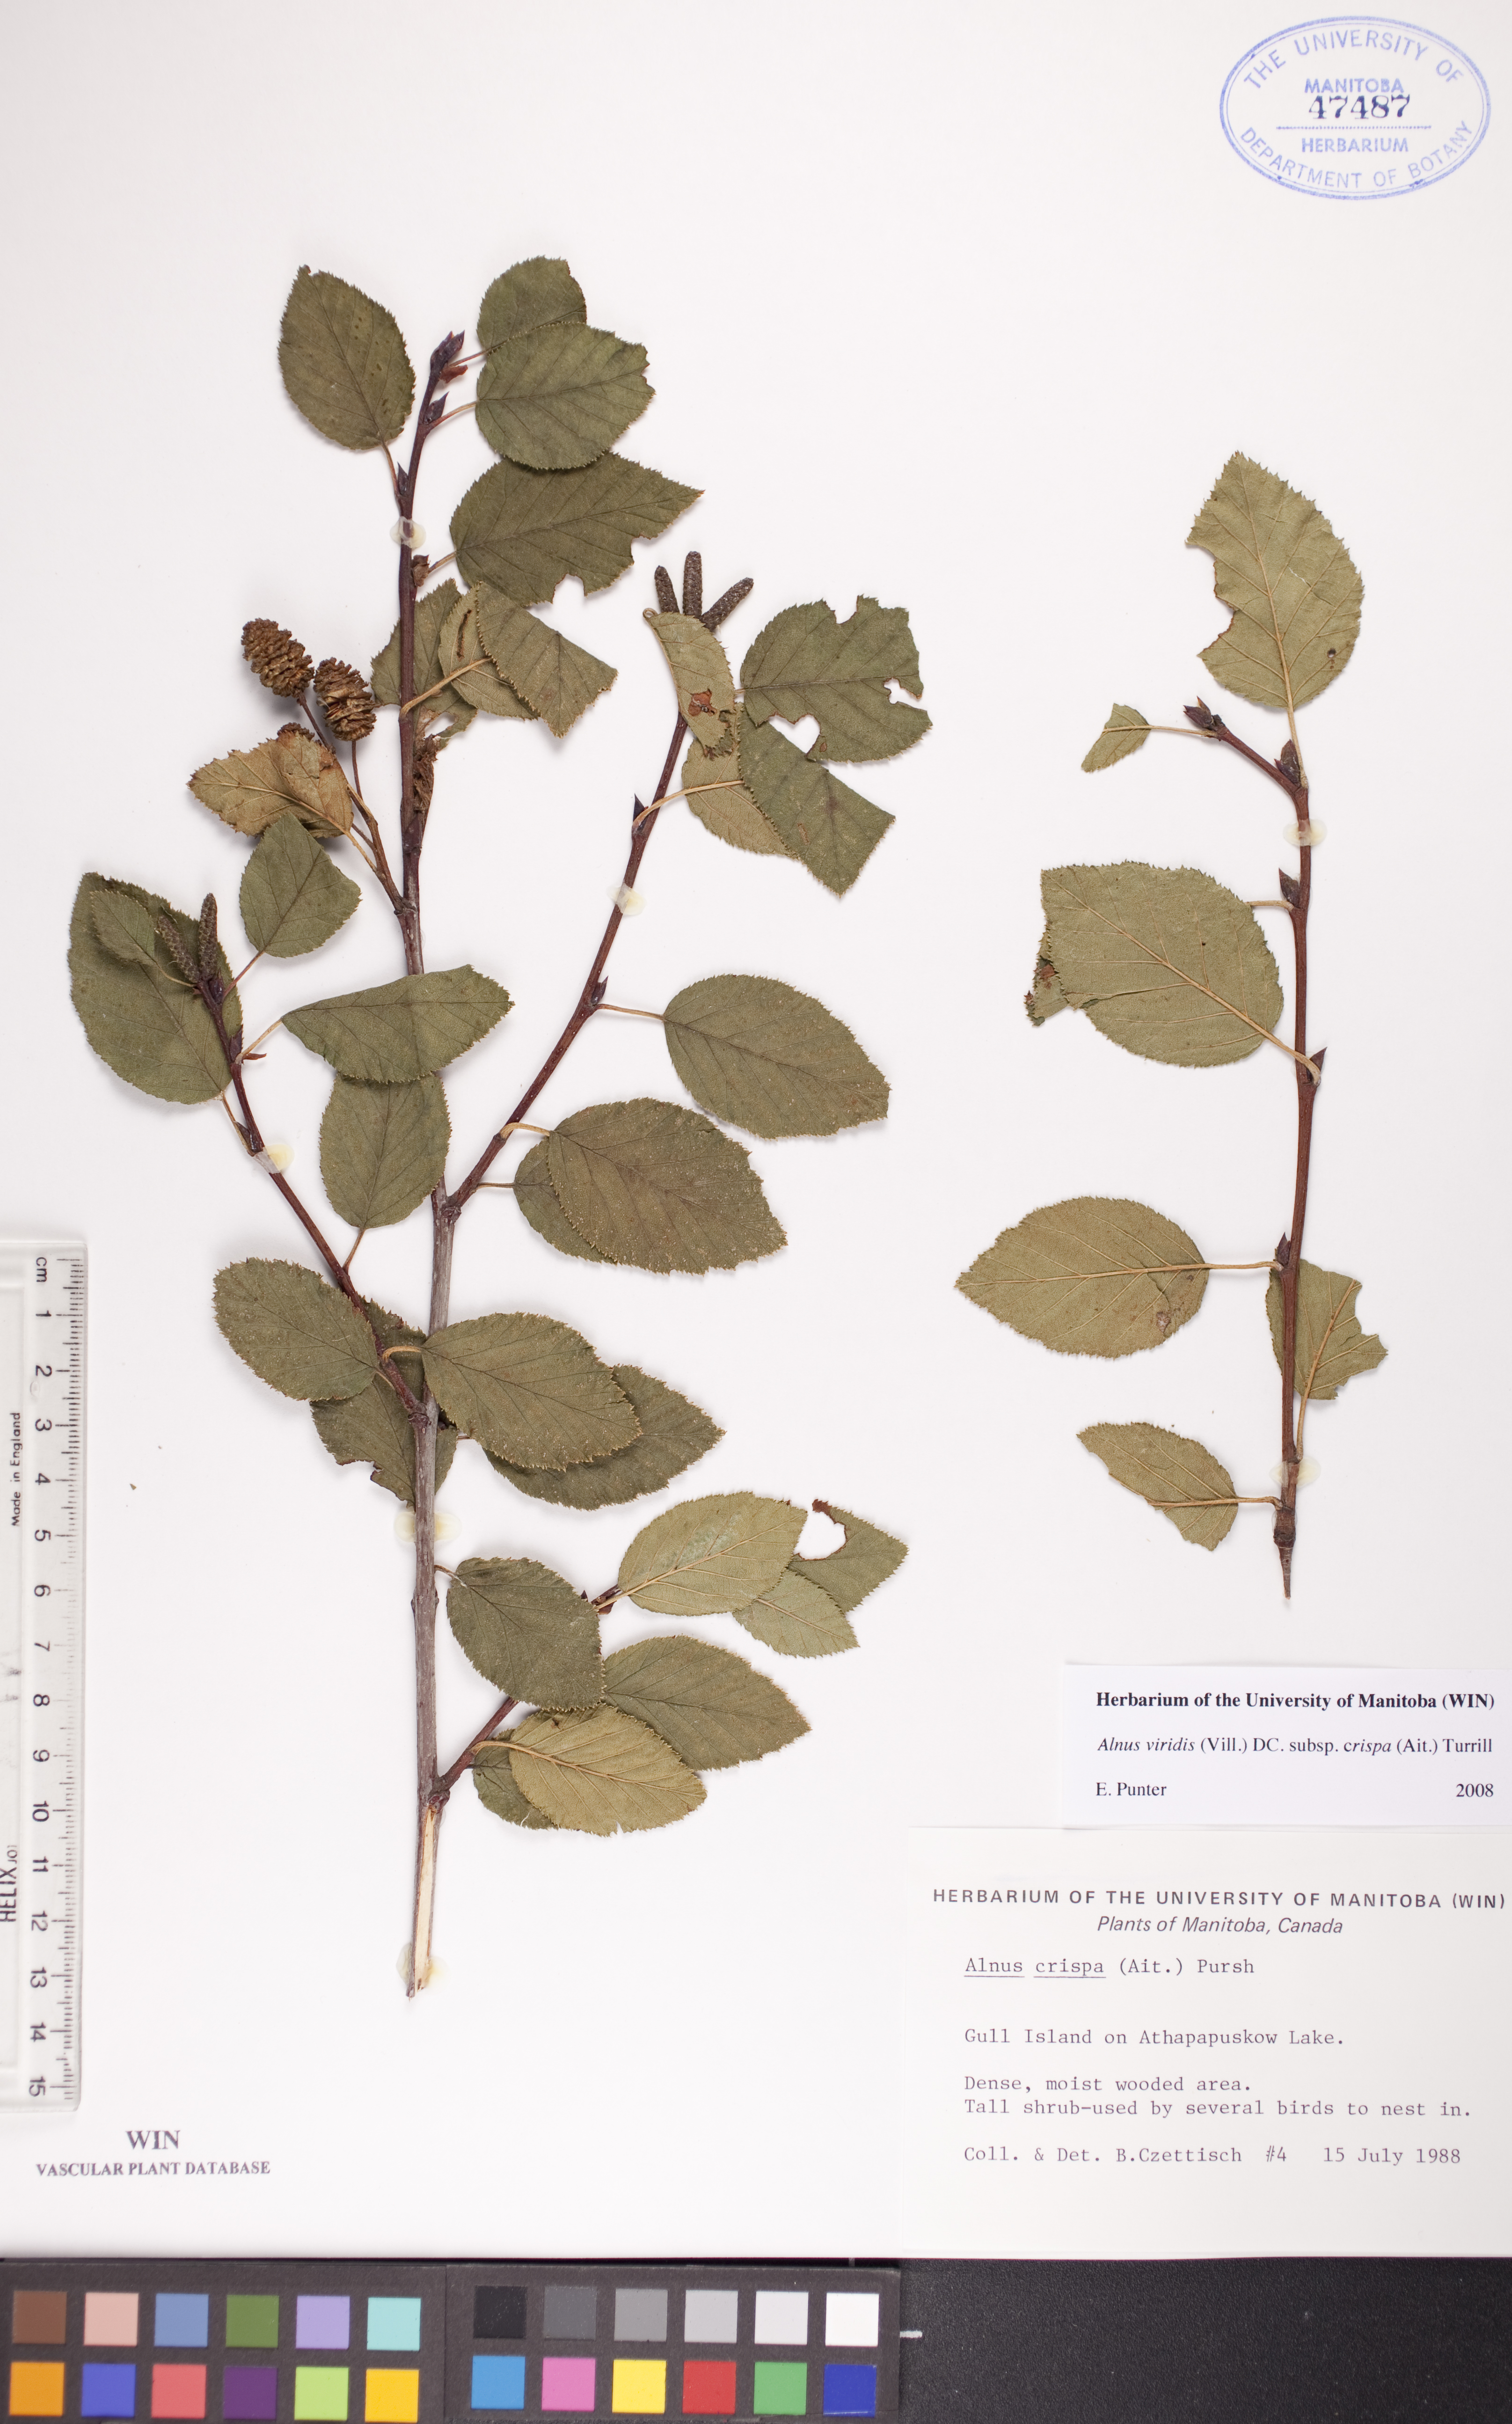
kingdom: Plantae
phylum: Tracheophyta
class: Magnoliopsida
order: Fagales
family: Betulaceae
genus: Alnus
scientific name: Alnus alnobetula
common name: Green alder
